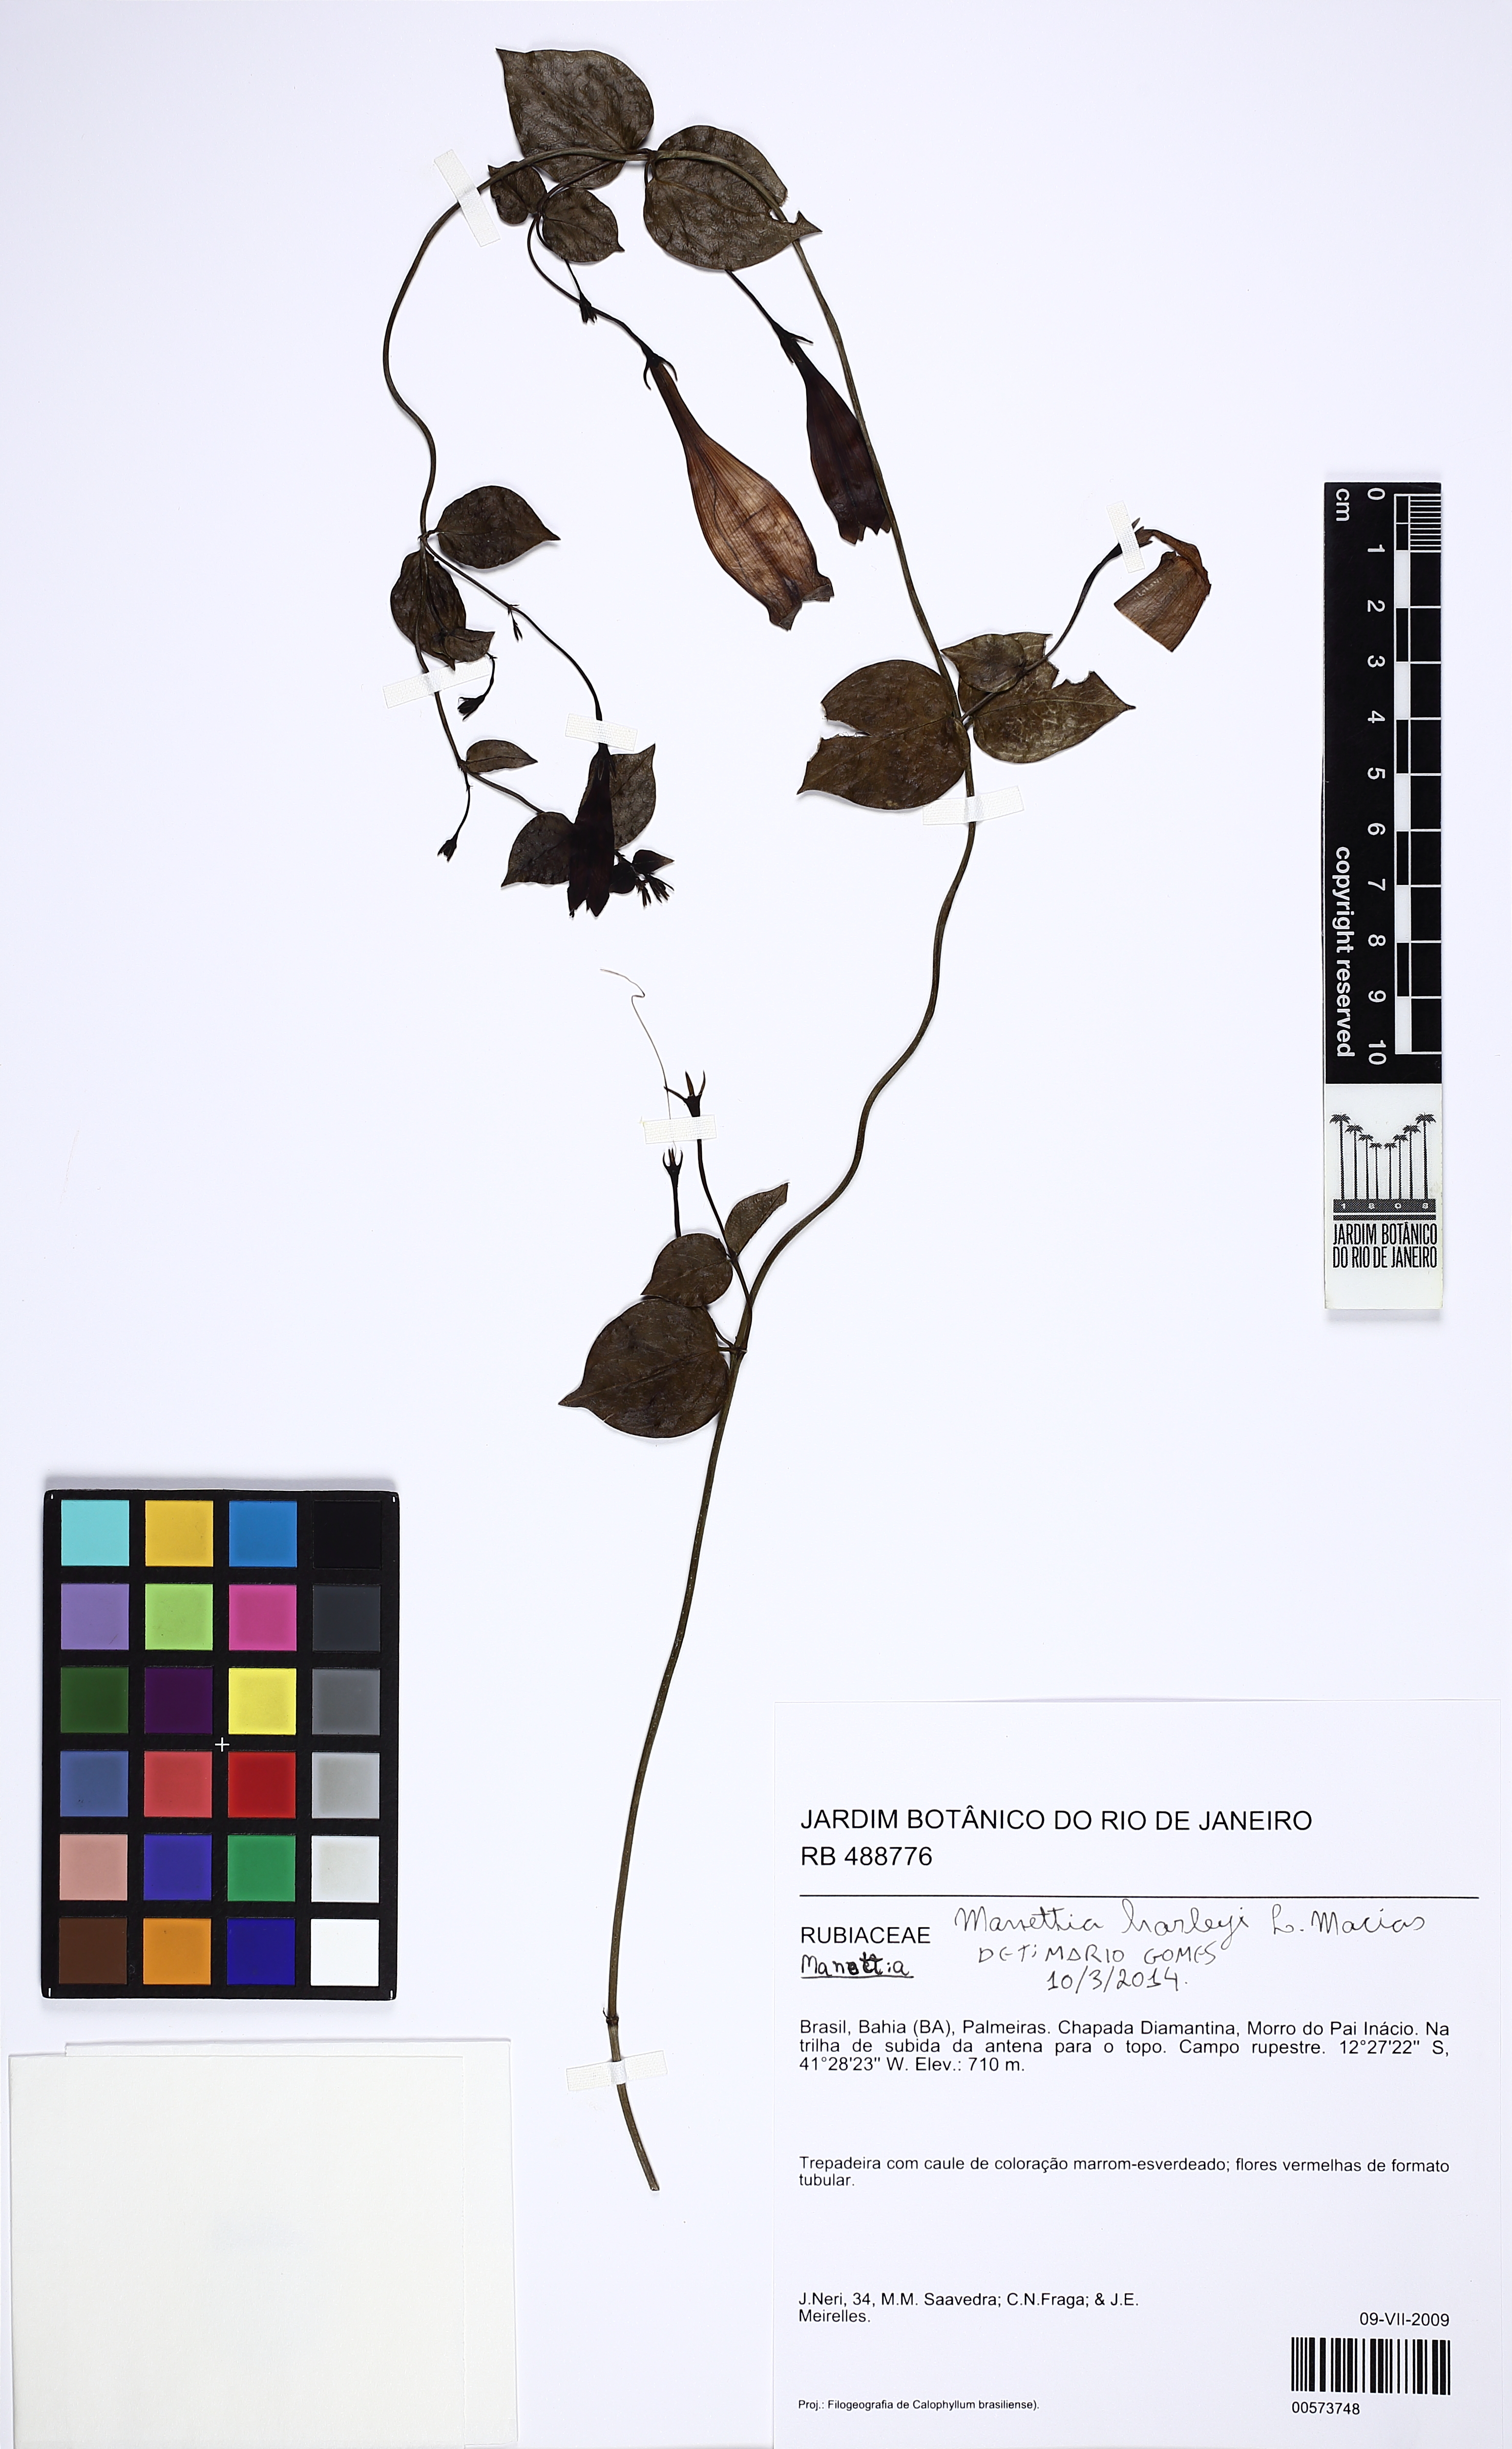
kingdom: Plantae
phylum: Tracheophyta
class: Magnoliopsida
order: Gentianales
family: Rubiaceae
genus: Manettia
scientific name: Manettia
